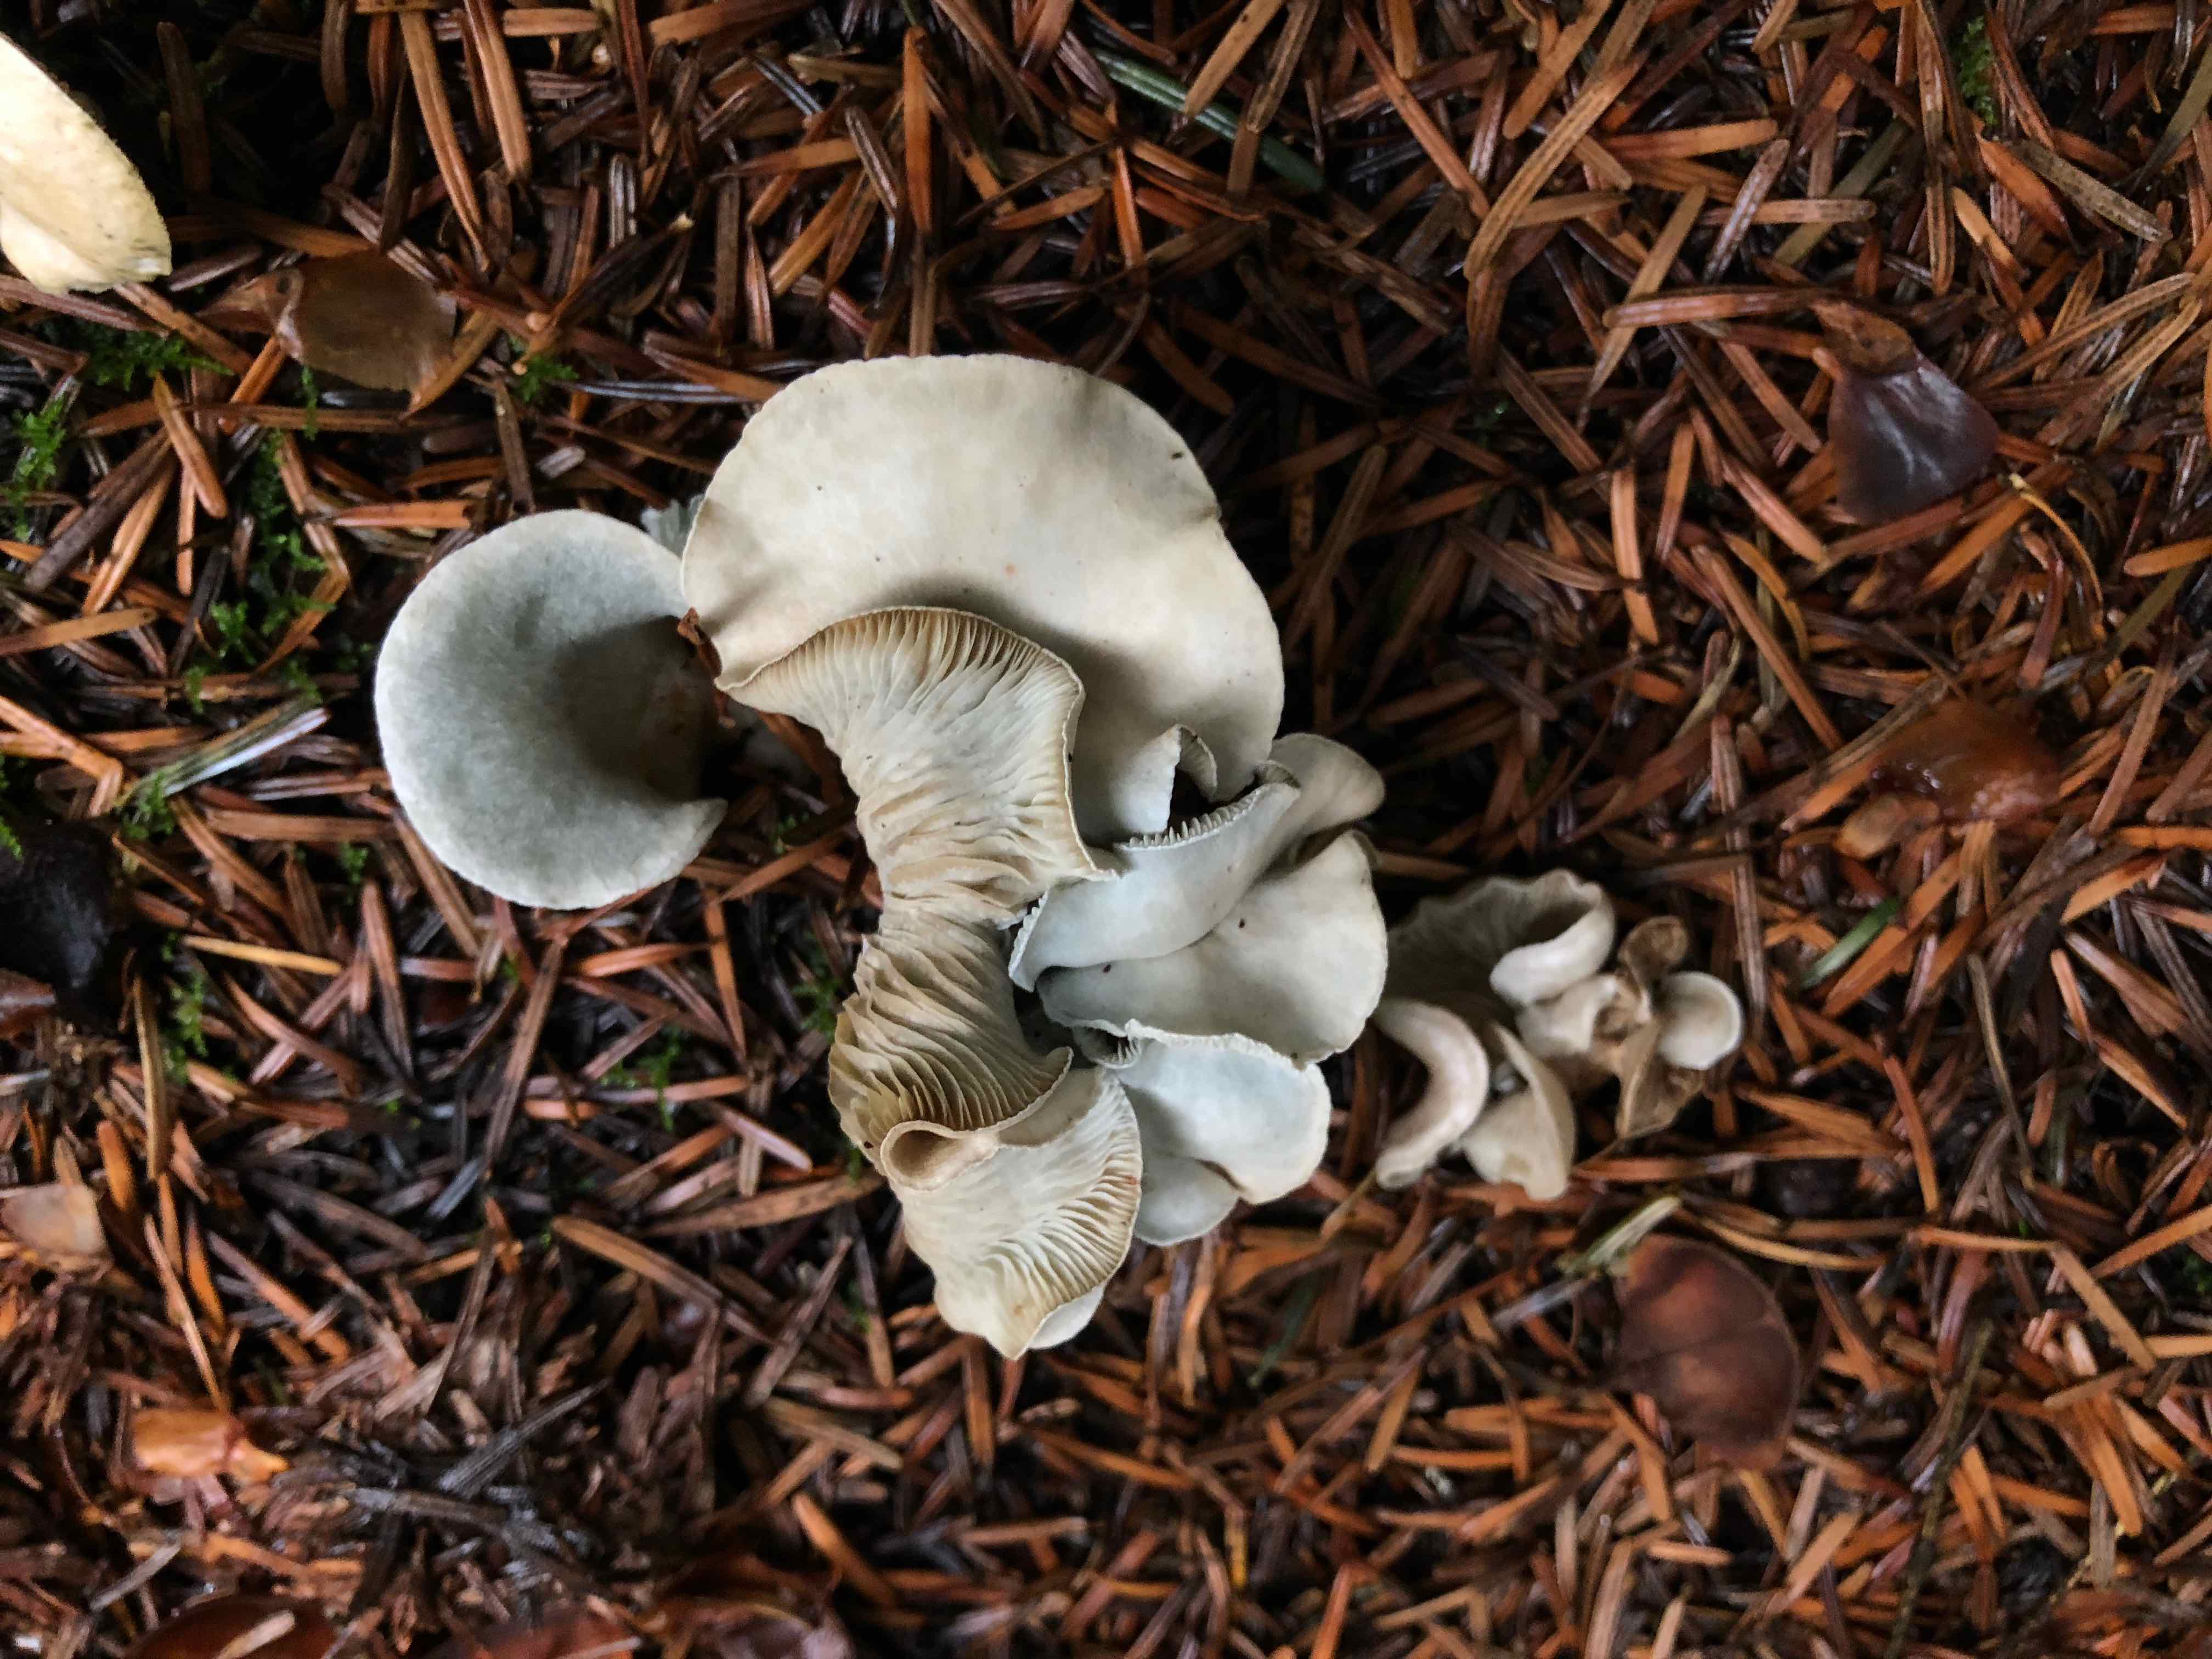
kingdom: Fungi
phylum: Basidiomycota
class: Agaricomycetes
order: Agaricales
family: Tricholomataceae
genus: Clitocybe
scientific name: Clitocybe odora
